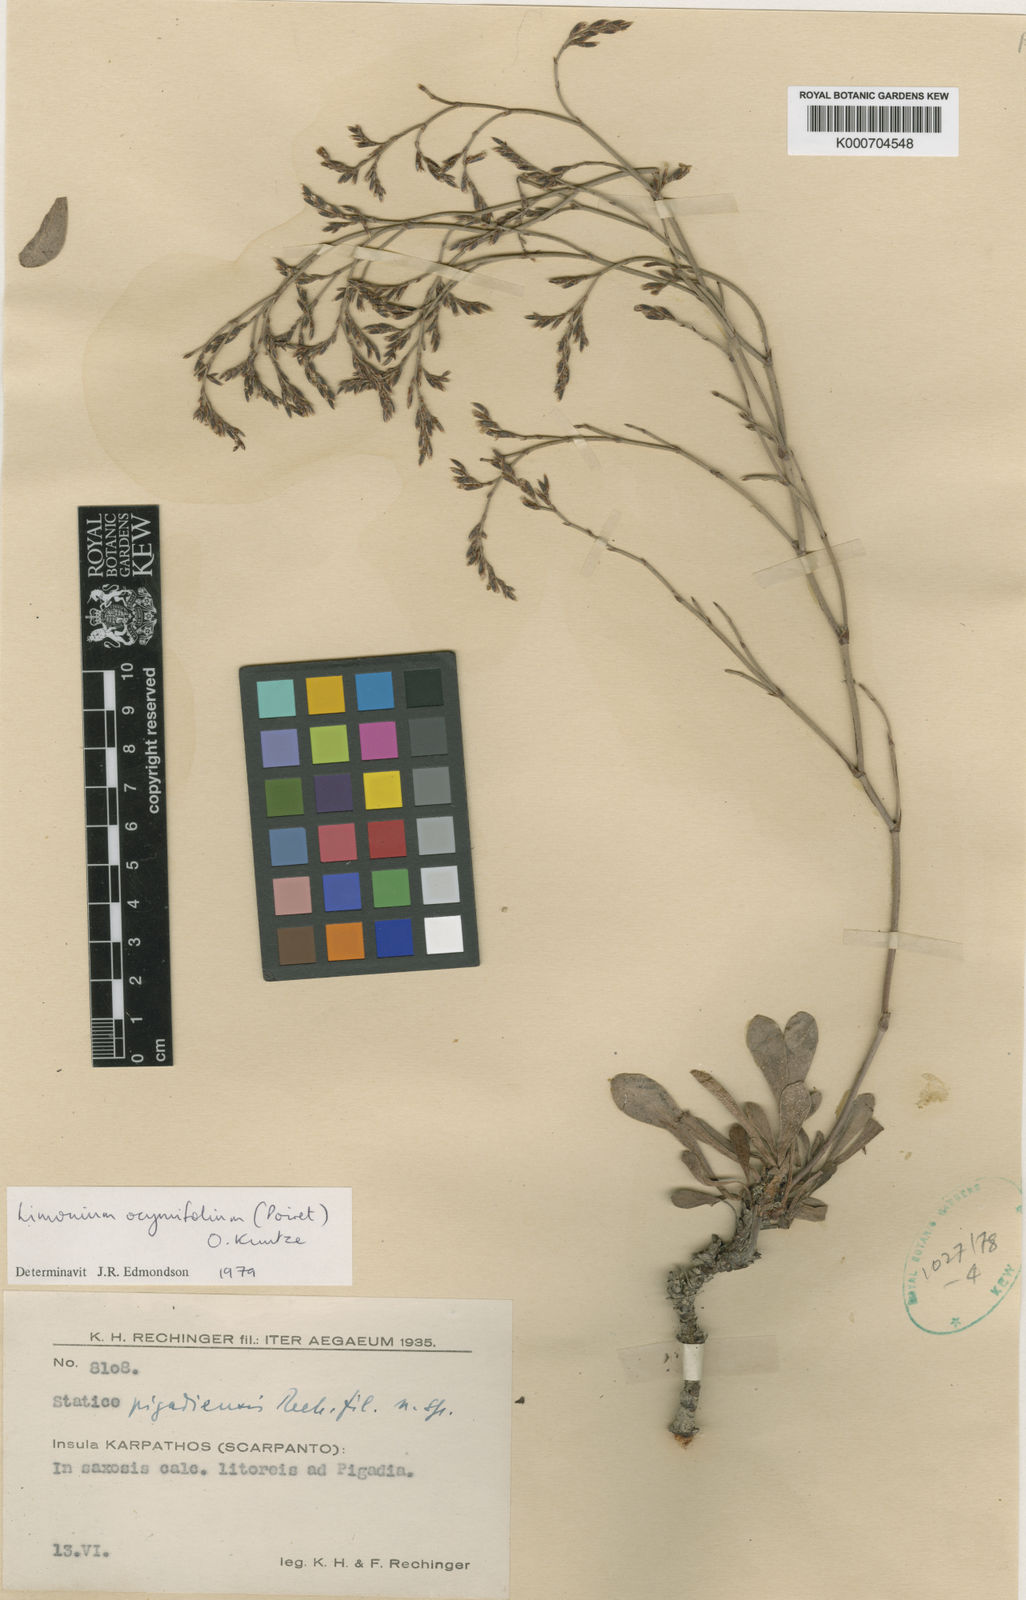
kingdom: Plantae
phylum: Tracheophyta
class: Magnoliopsida
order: Caryophyllales
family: Plumbaginaceae
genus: Limonium
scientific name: Limonium ocymifolium
